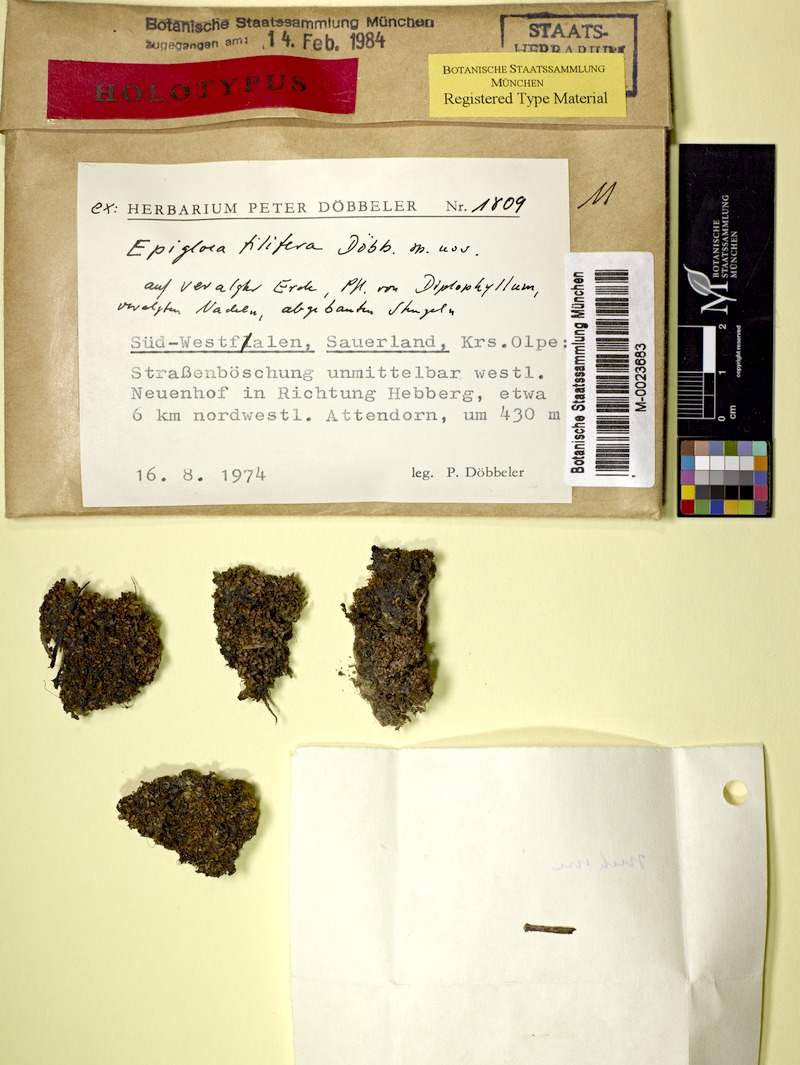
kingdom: Fungi
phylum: Ascomycota
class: Lecanoromycetes
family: Epigloeaceae
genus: Epigloea
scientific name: Epigloea filifera
